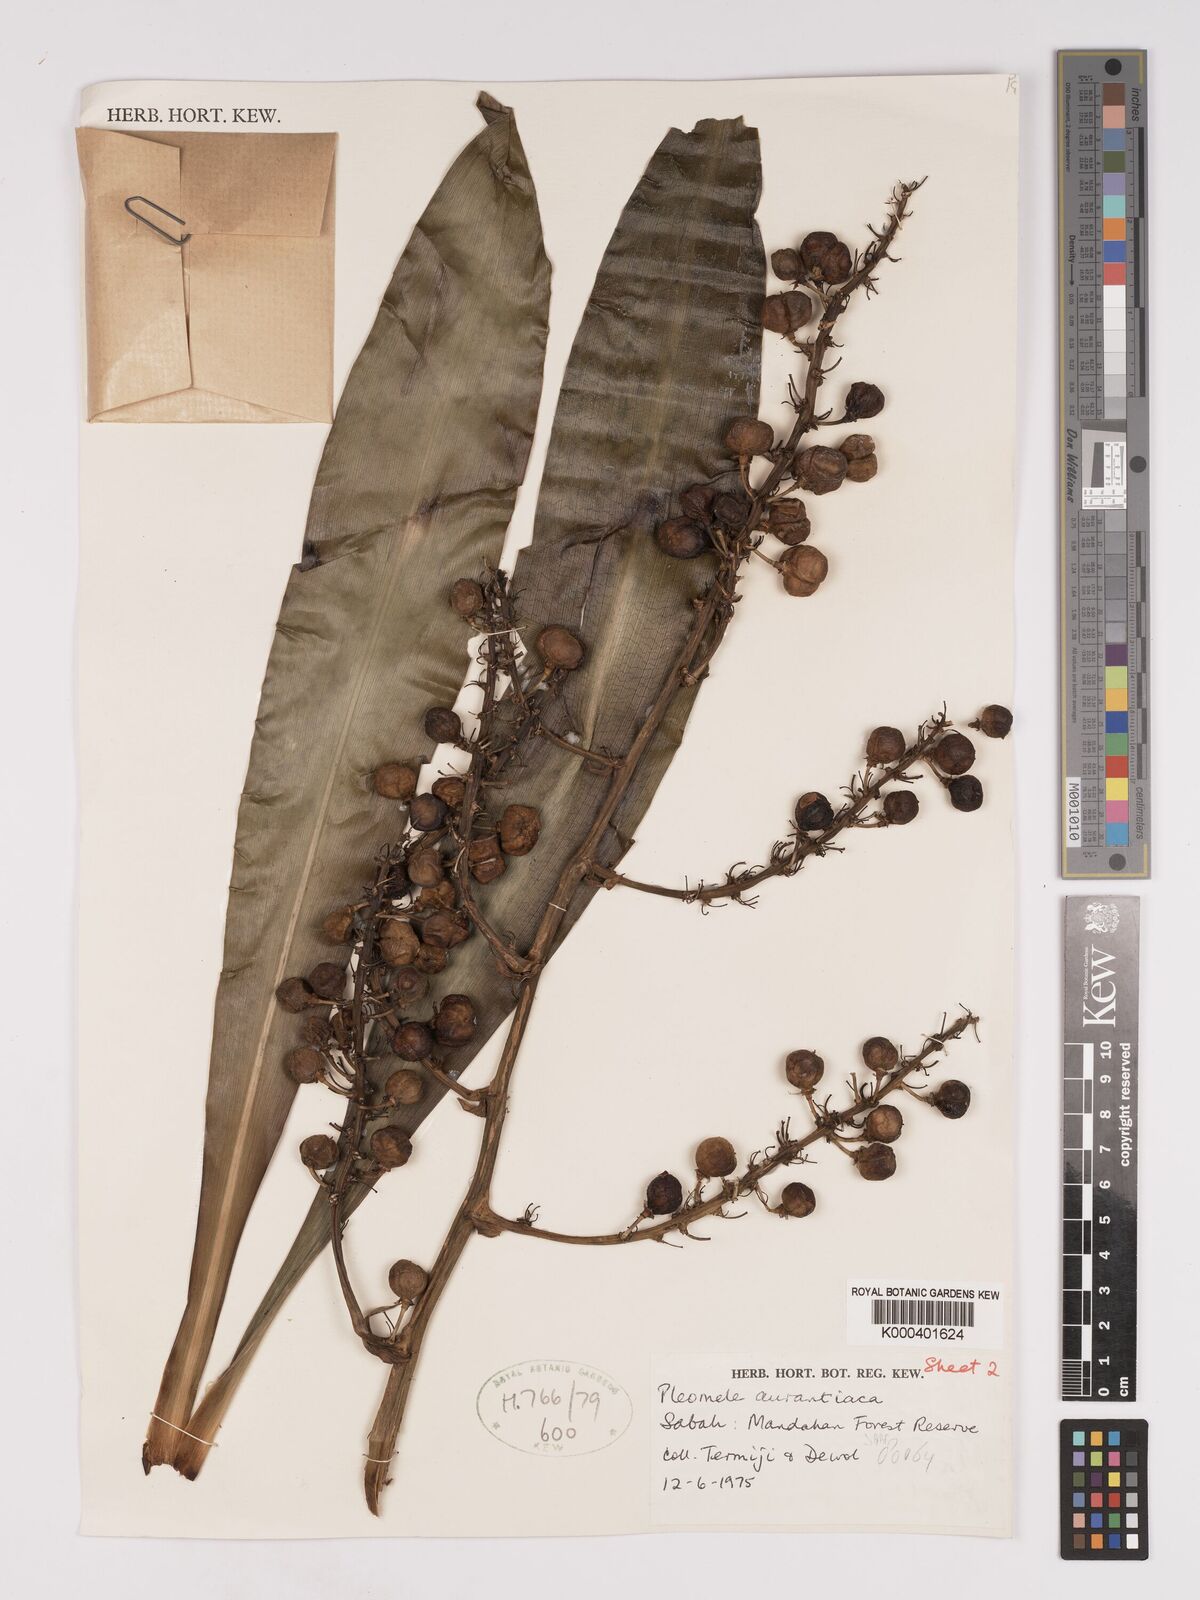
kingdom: Plantae
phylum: Tracheophyta
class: Liliopsida
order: Asparagales
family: Asparagaceae
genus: Dracaena
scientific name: Dracaena
